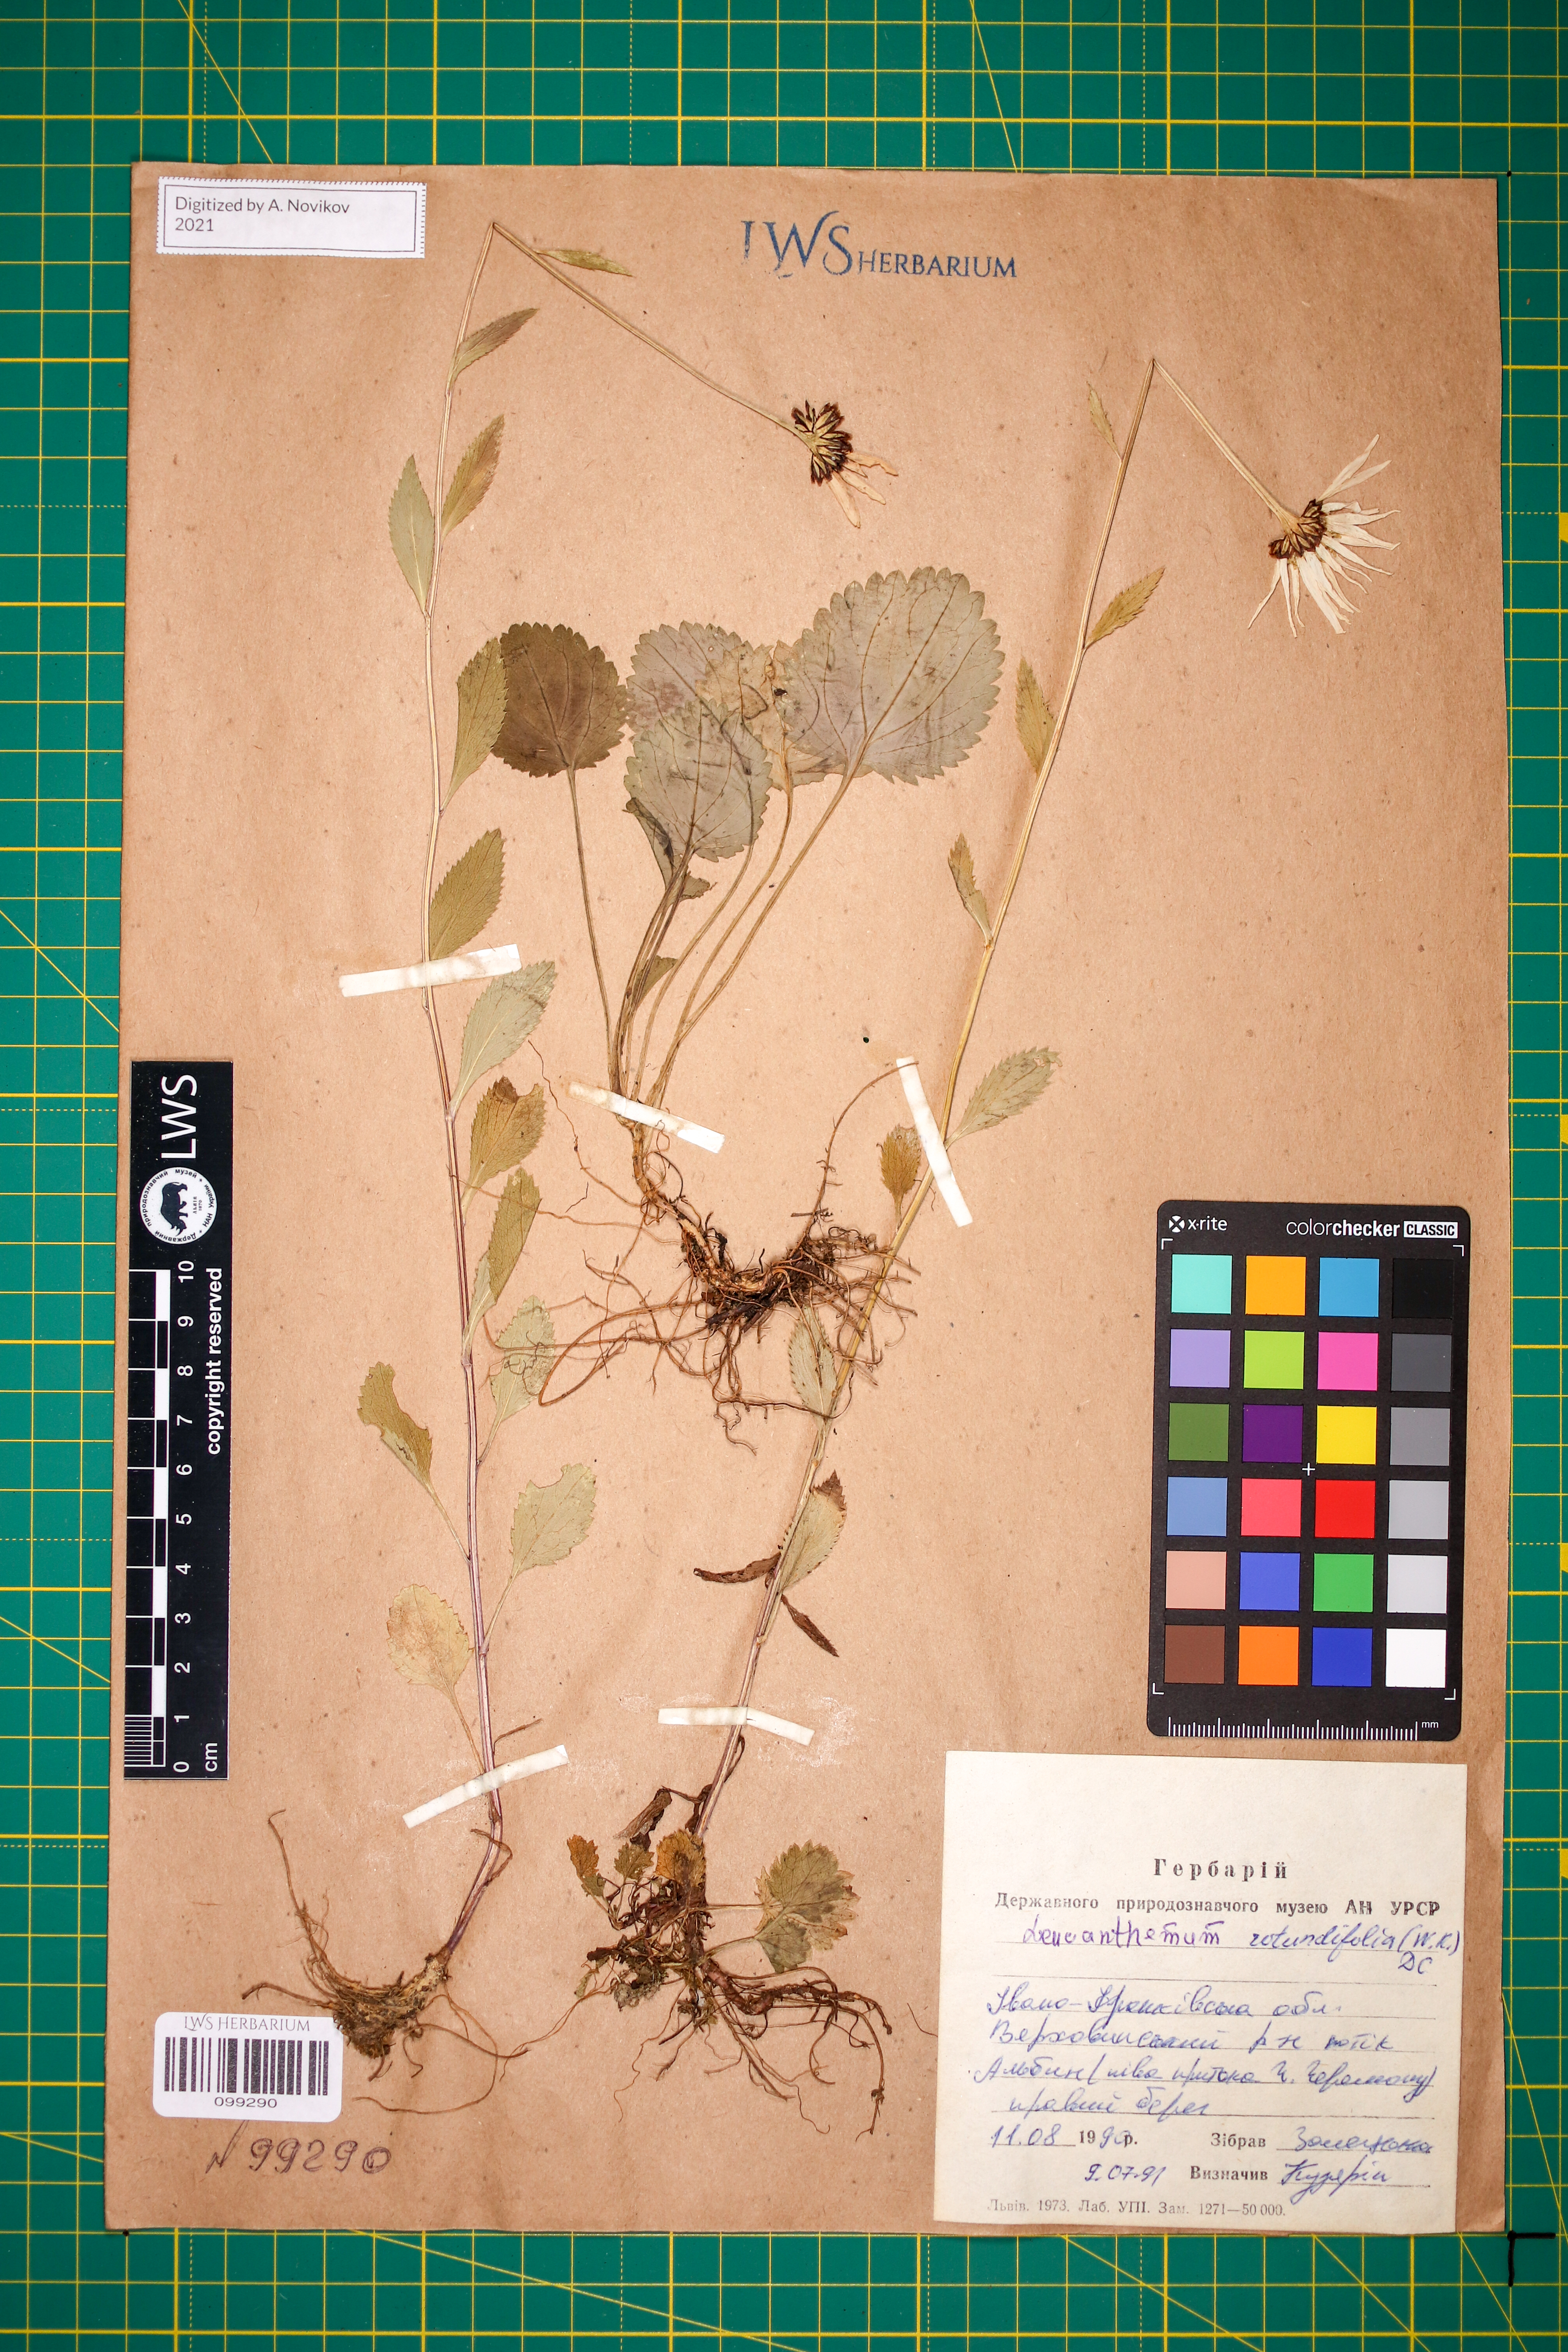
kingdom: Plantae
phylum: Tracheophyta
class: Magnoliopsida
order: Asterales
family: Asteraceae
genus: Leucanthemum
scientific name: Leucanthemum rotundifolium
